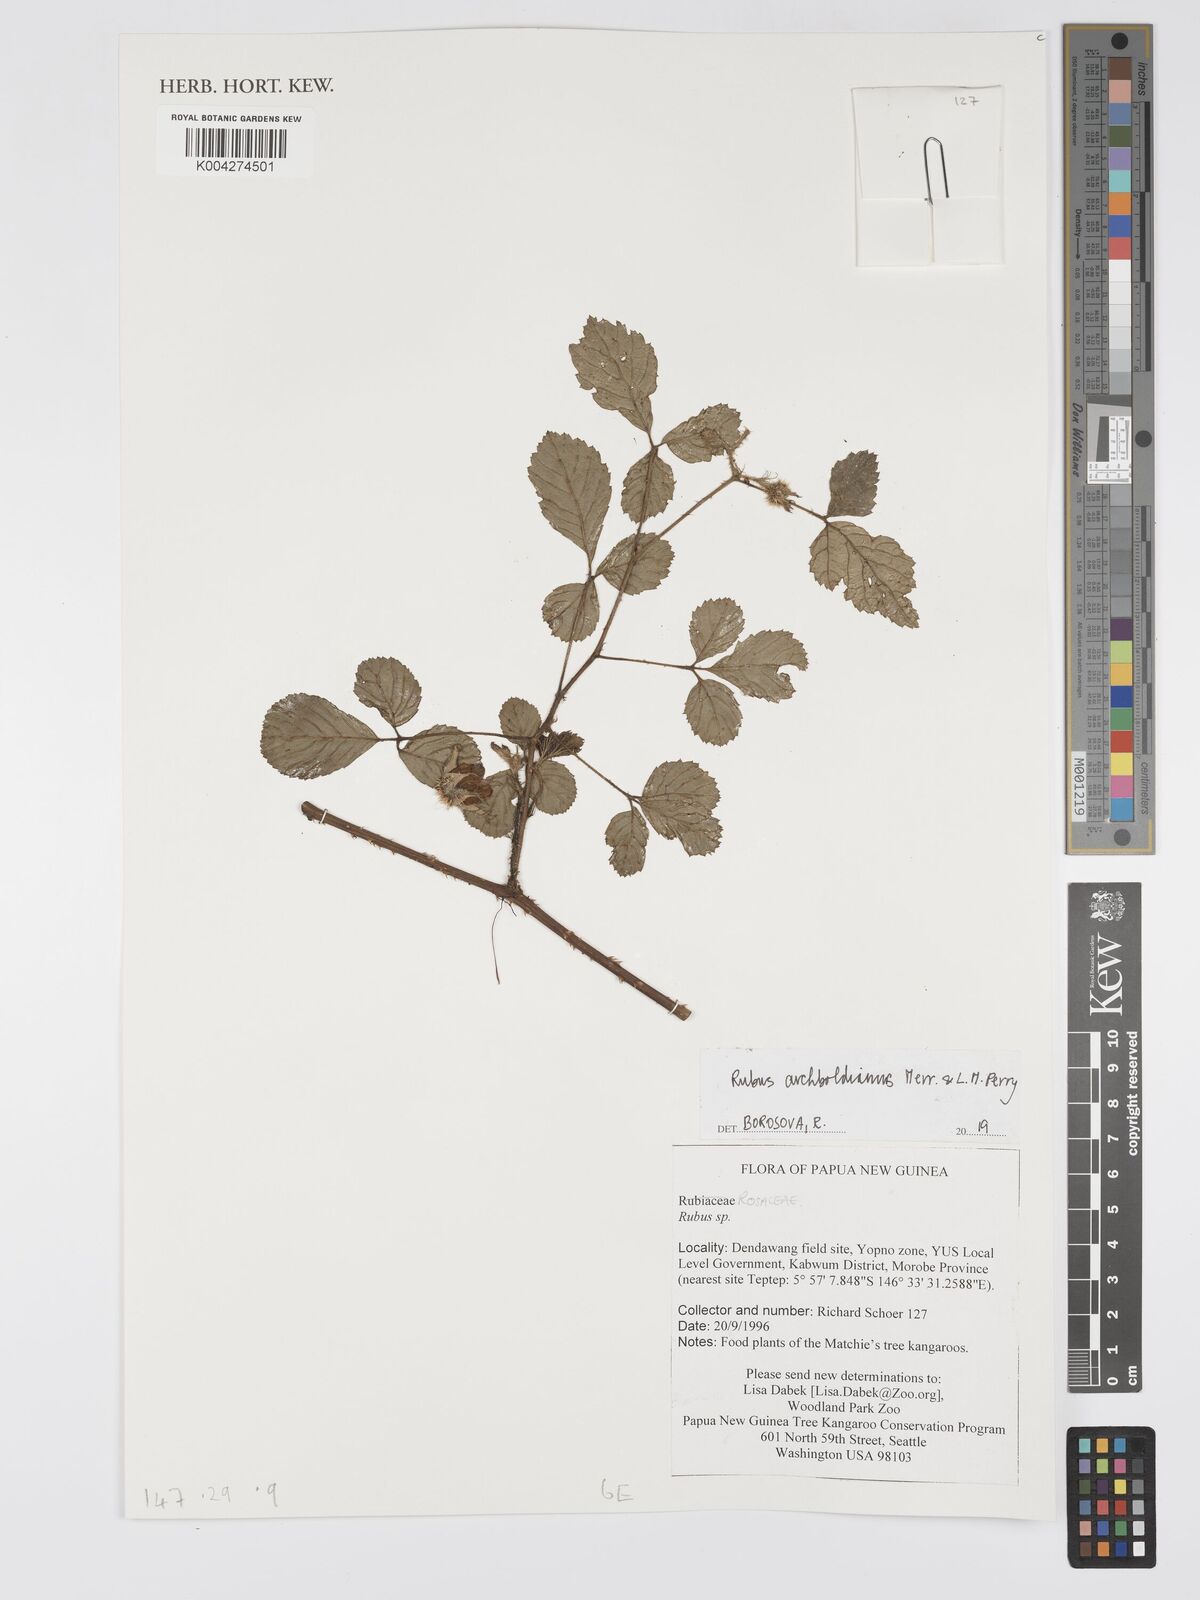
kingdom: Plantae
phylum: Tracheophyta
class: Magnoliopsida
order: Rosales
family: Rosaceae
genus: Rubus
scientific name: Rubus archboldianus
